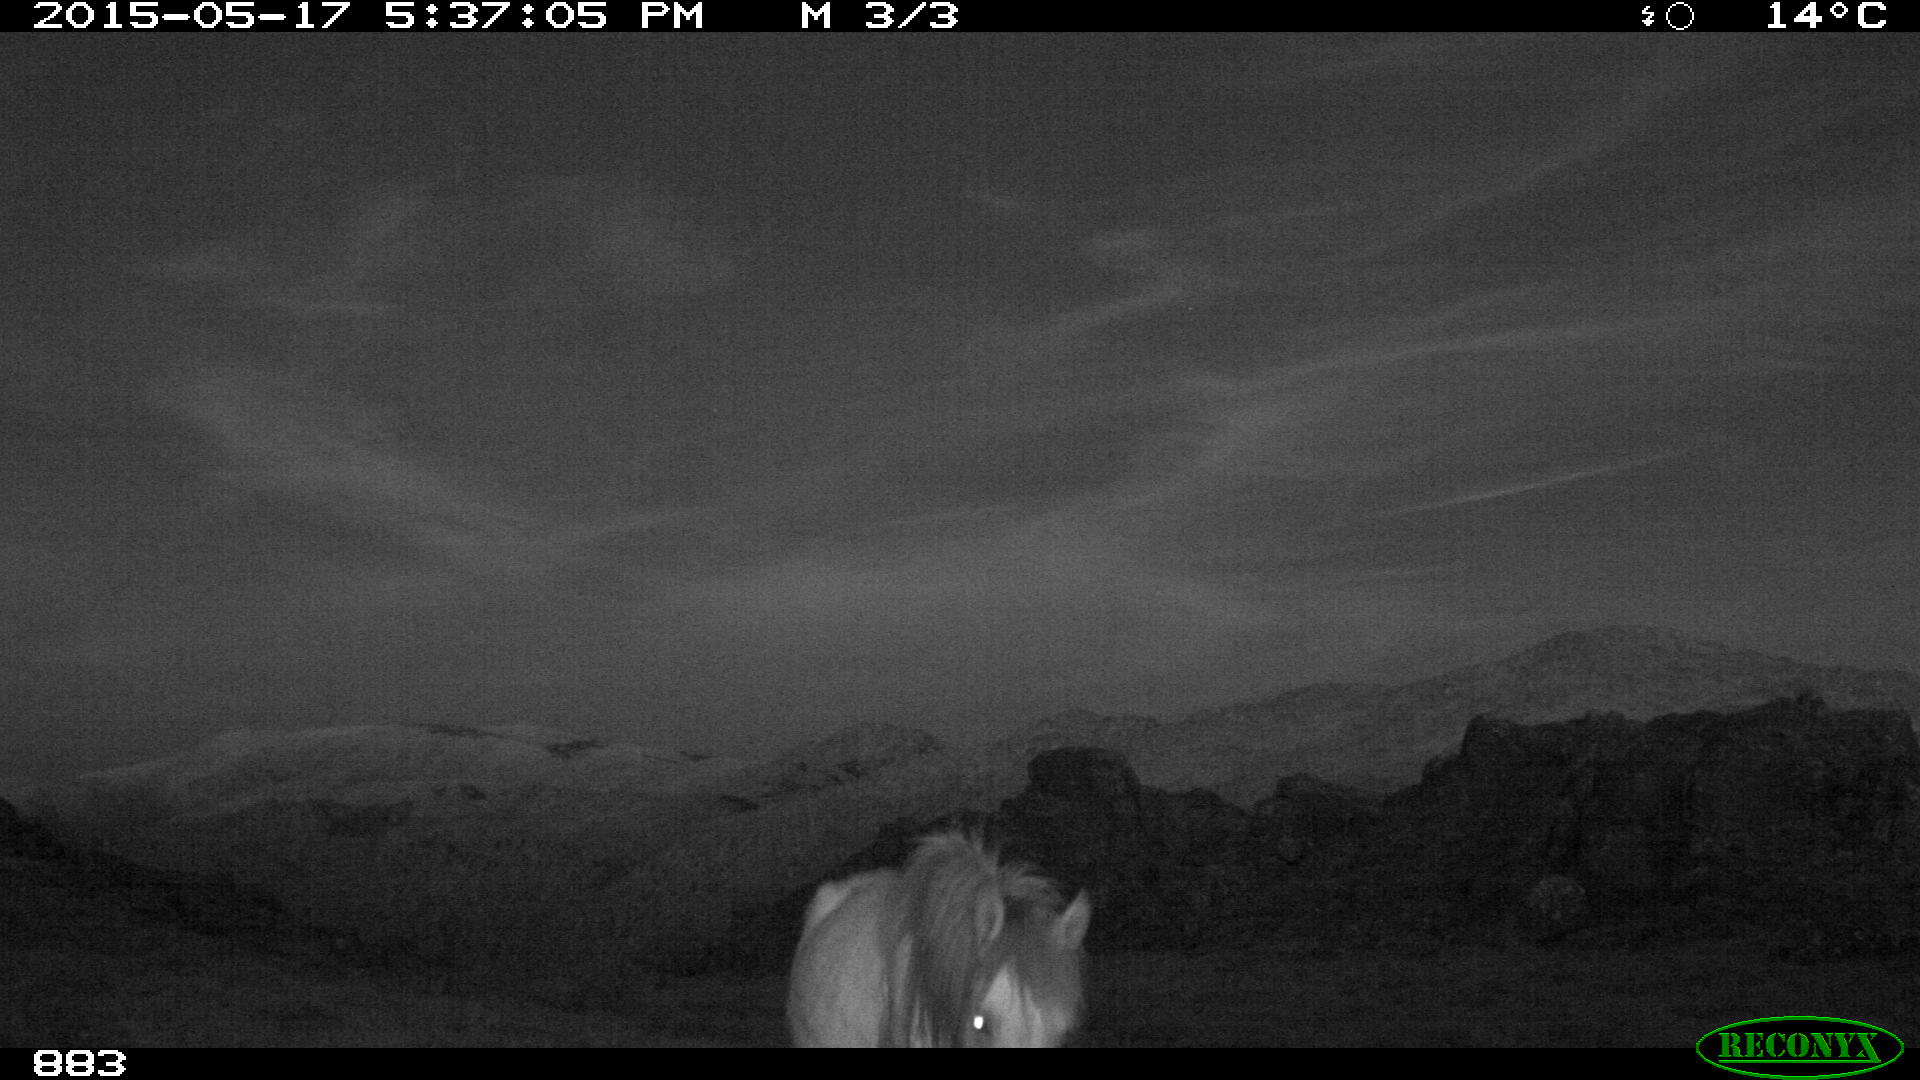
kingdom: Animalia
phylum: Chordata
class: Mammalia
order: Perissodactyla
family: Equidae
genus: Equus
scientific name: Equus caballus
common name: Horse
